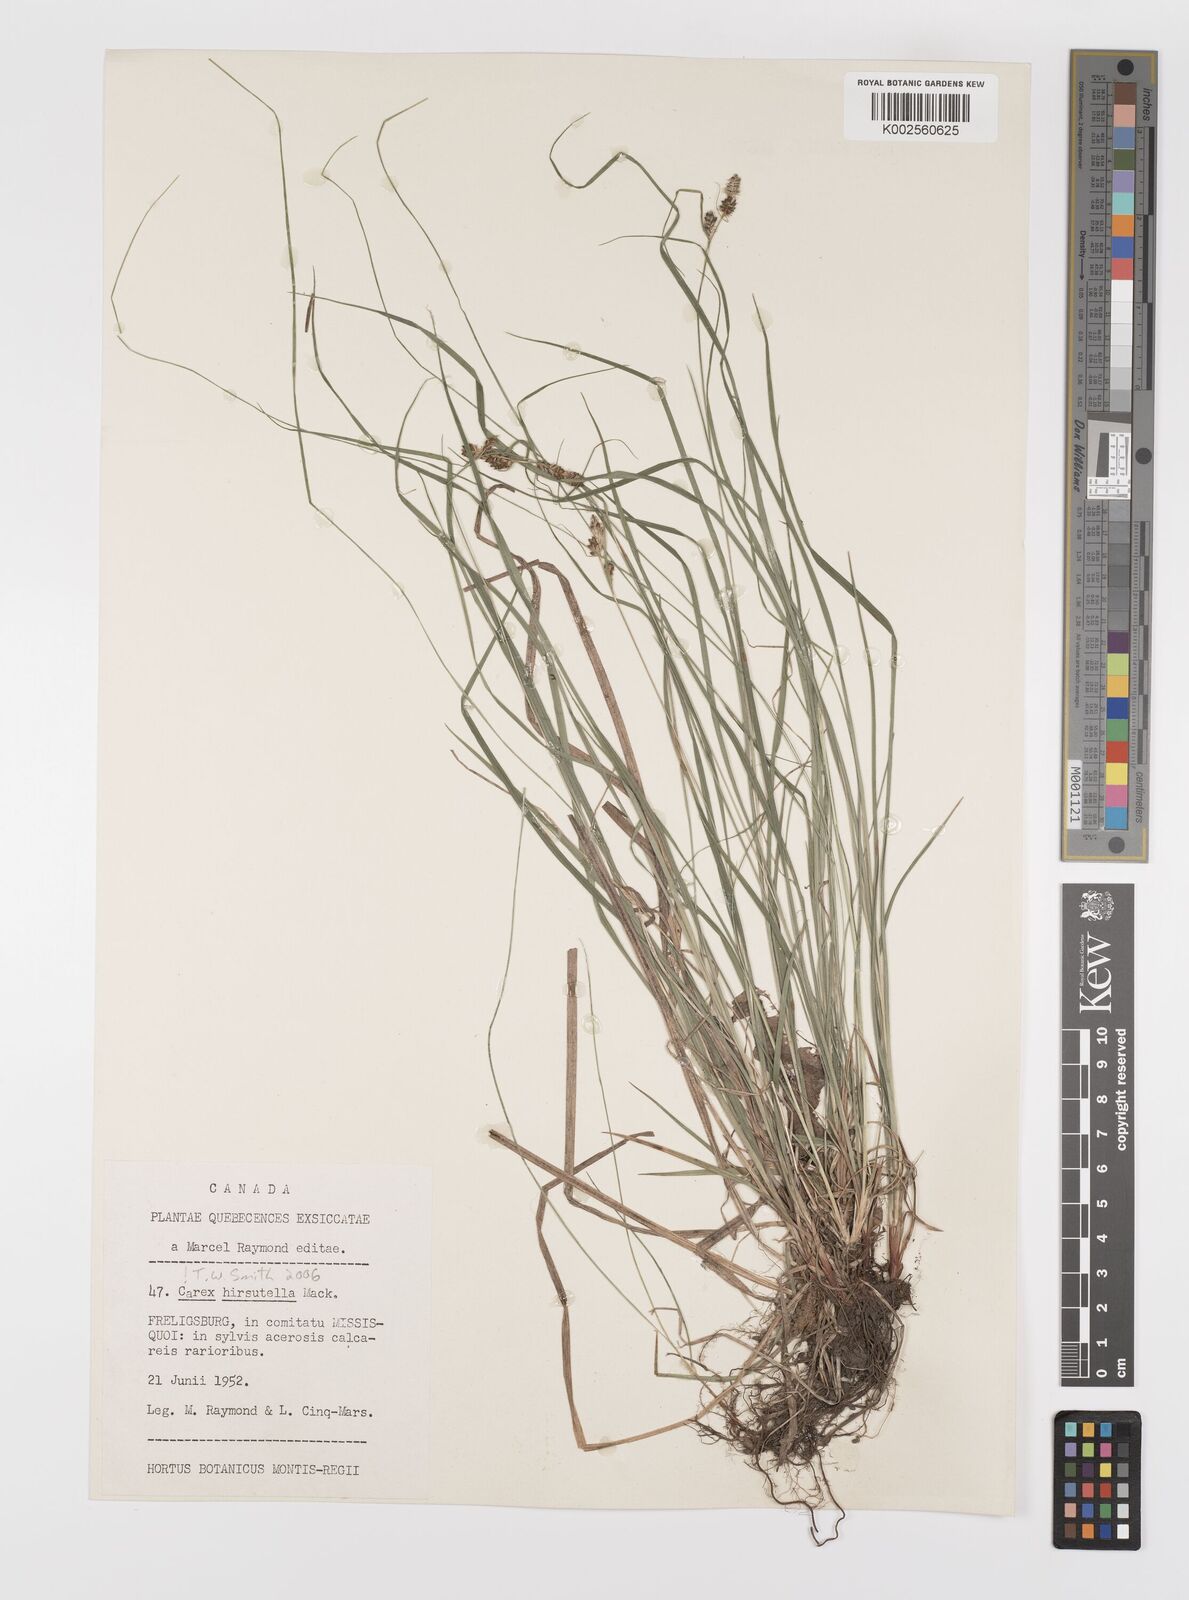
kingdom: Plantae
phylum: Tracheophyta
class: Liliopsida
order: Poales
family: Cyperaceae
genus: Carex
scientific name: Carex hirsutella
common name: Fuzzy wuzzy sedge
